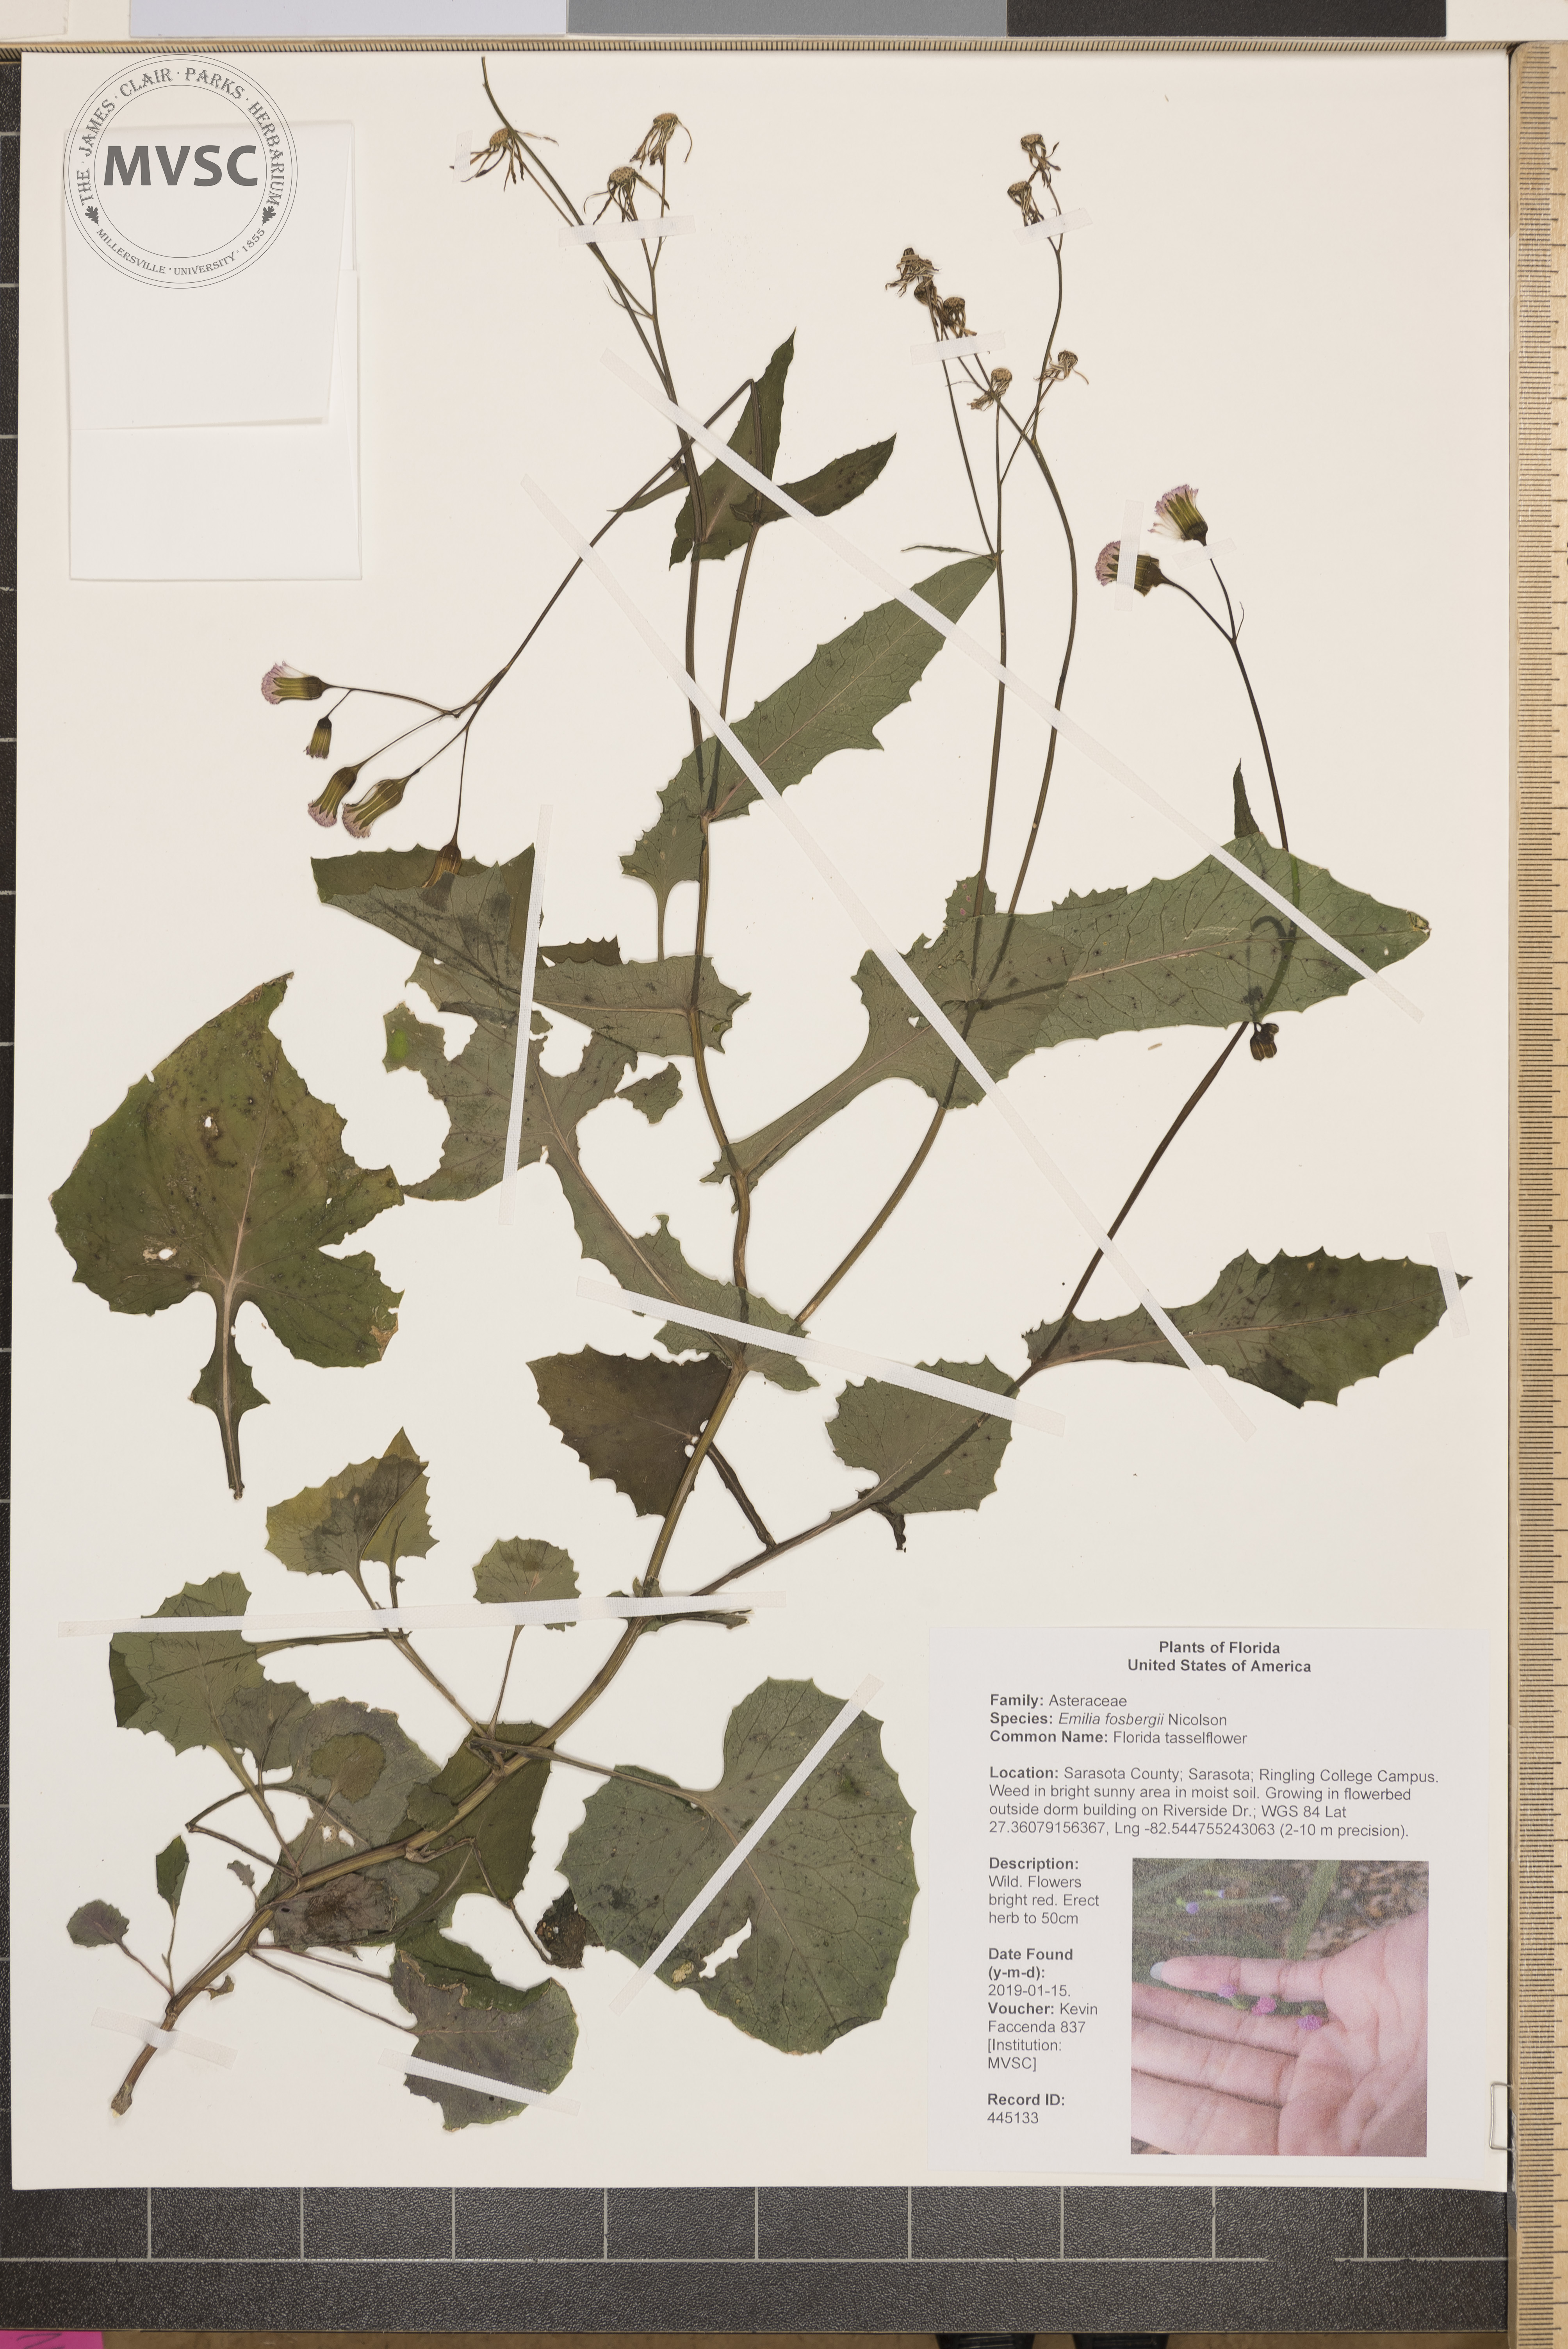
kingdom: Plantae
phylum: Tracheophyta
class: Magnoliopsida
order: Asterales
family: Asteraceae
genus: Emilia
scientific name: Emilia fosbergii
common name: Florida tasselflower
